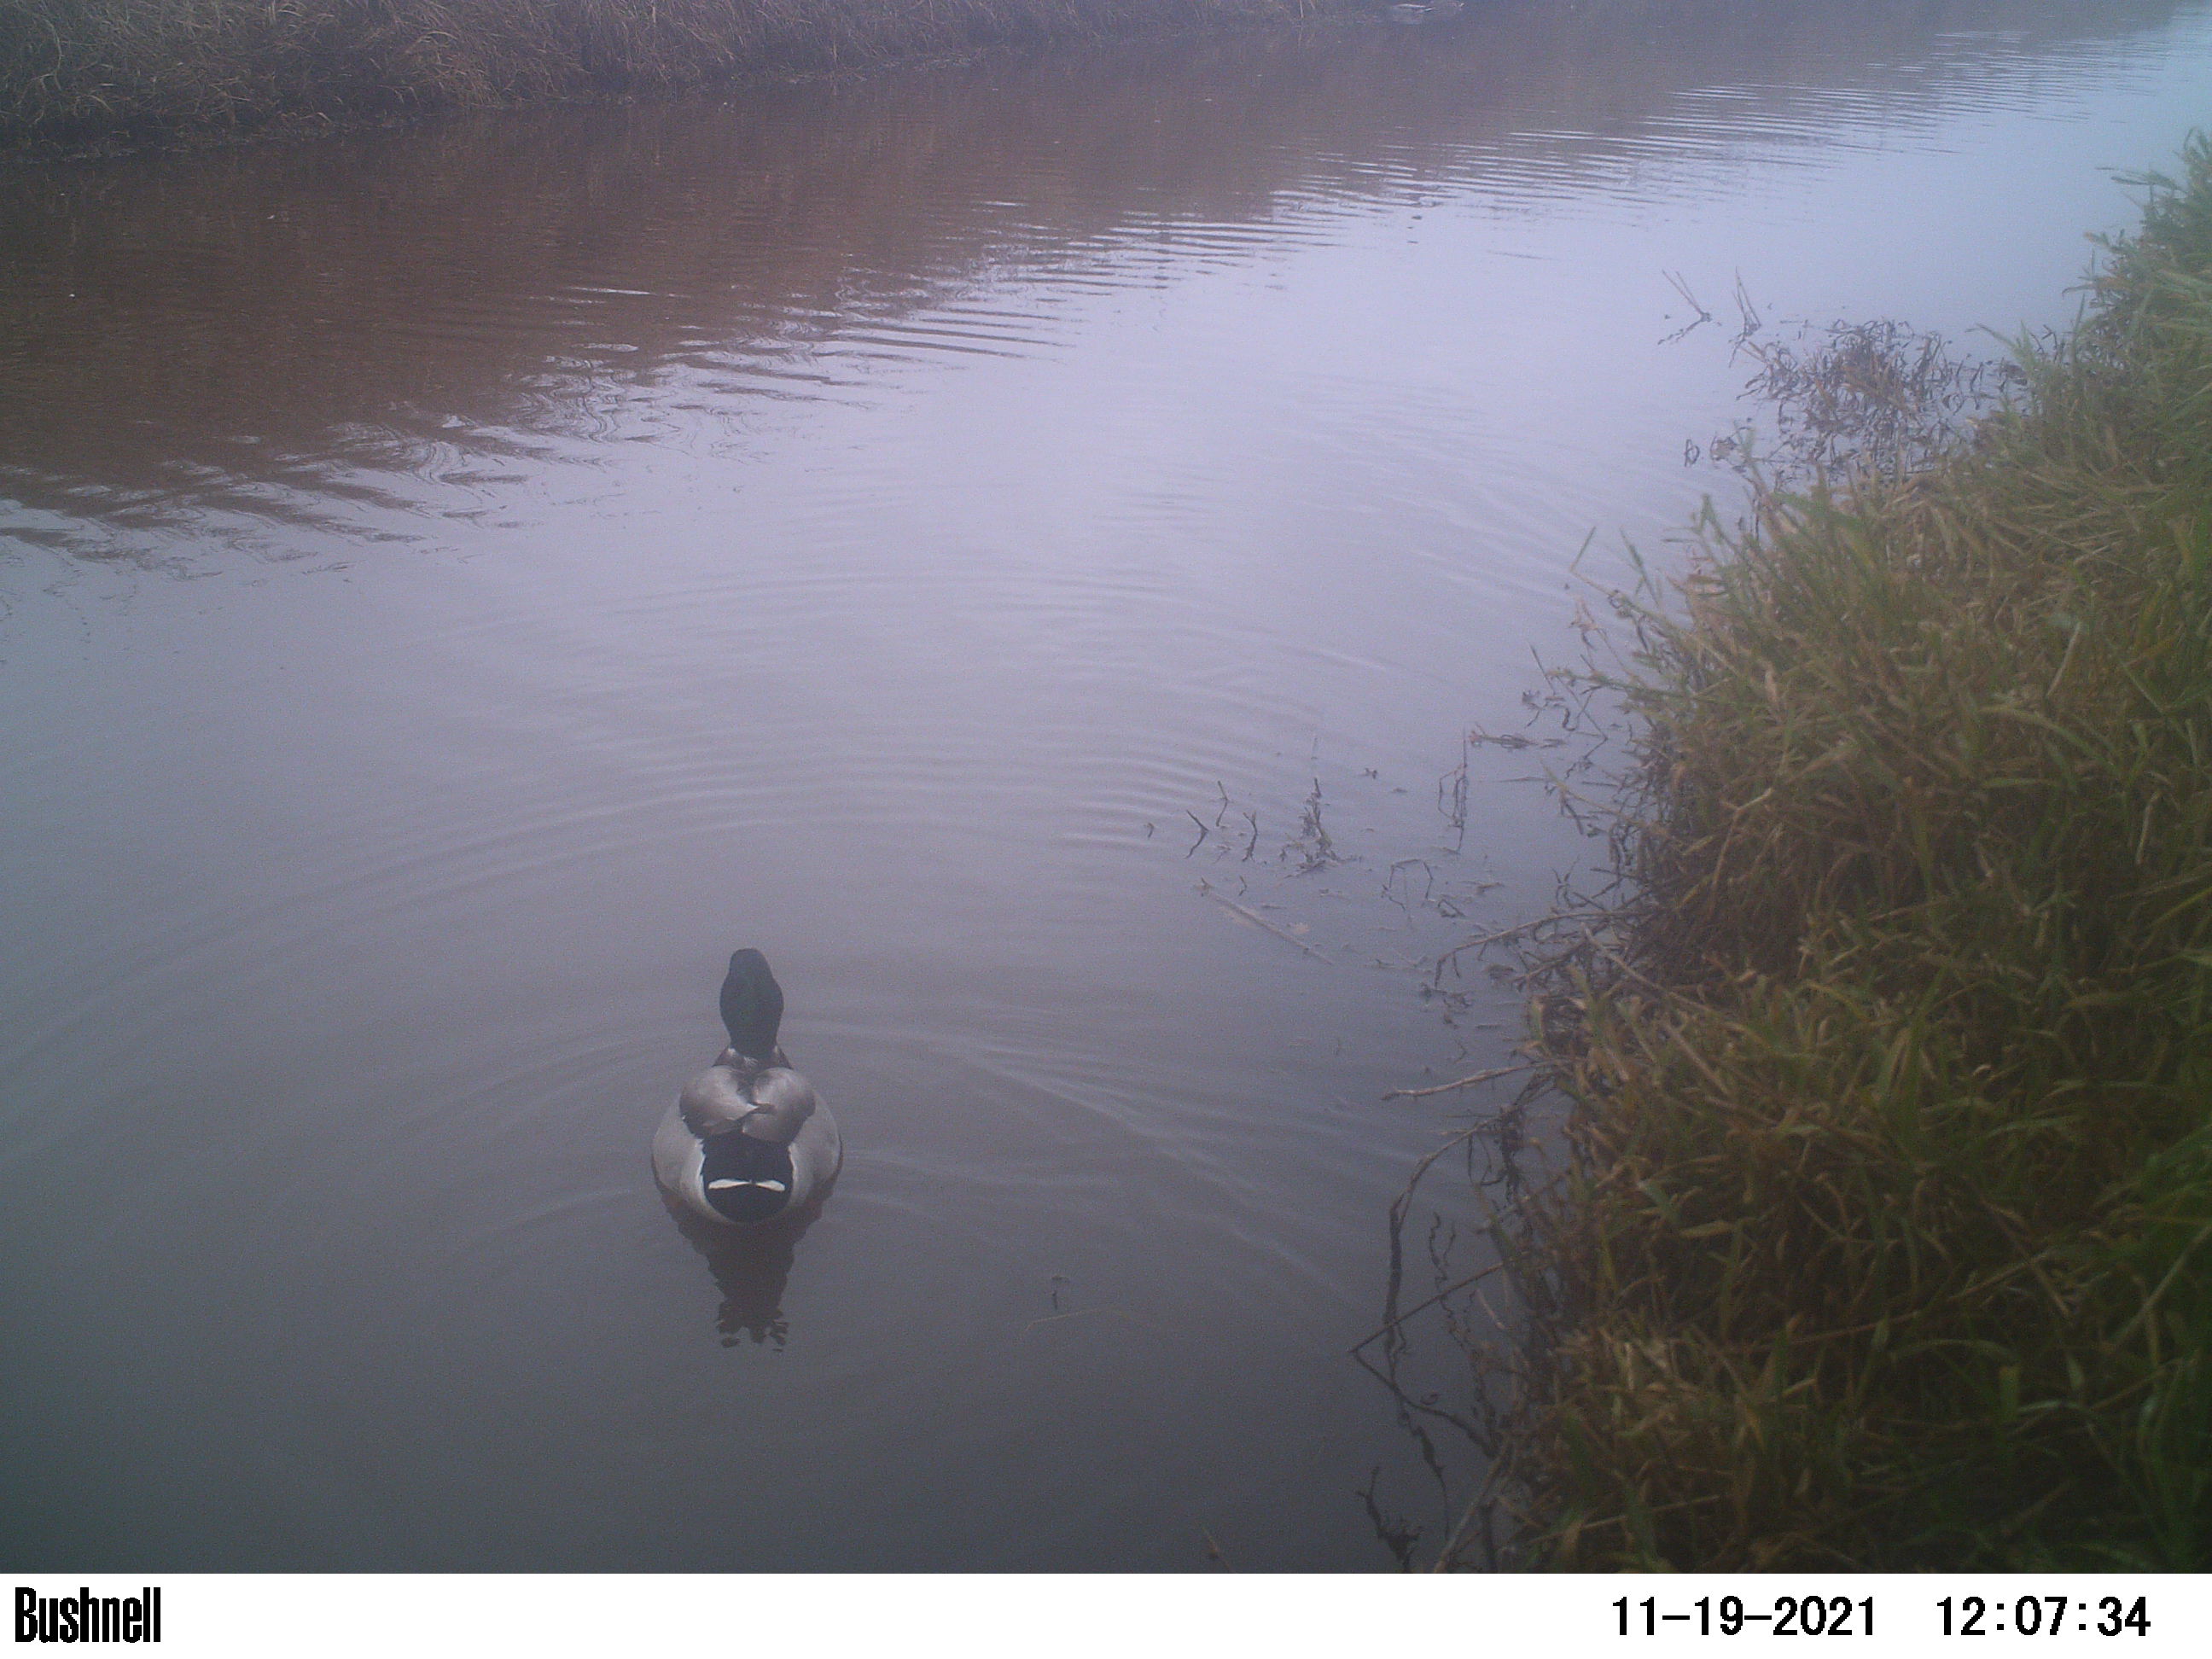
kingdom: Animalia
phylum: Chordata
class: Aves
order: Anseriformes
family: Anatidae
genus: Anas
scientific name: Anas
